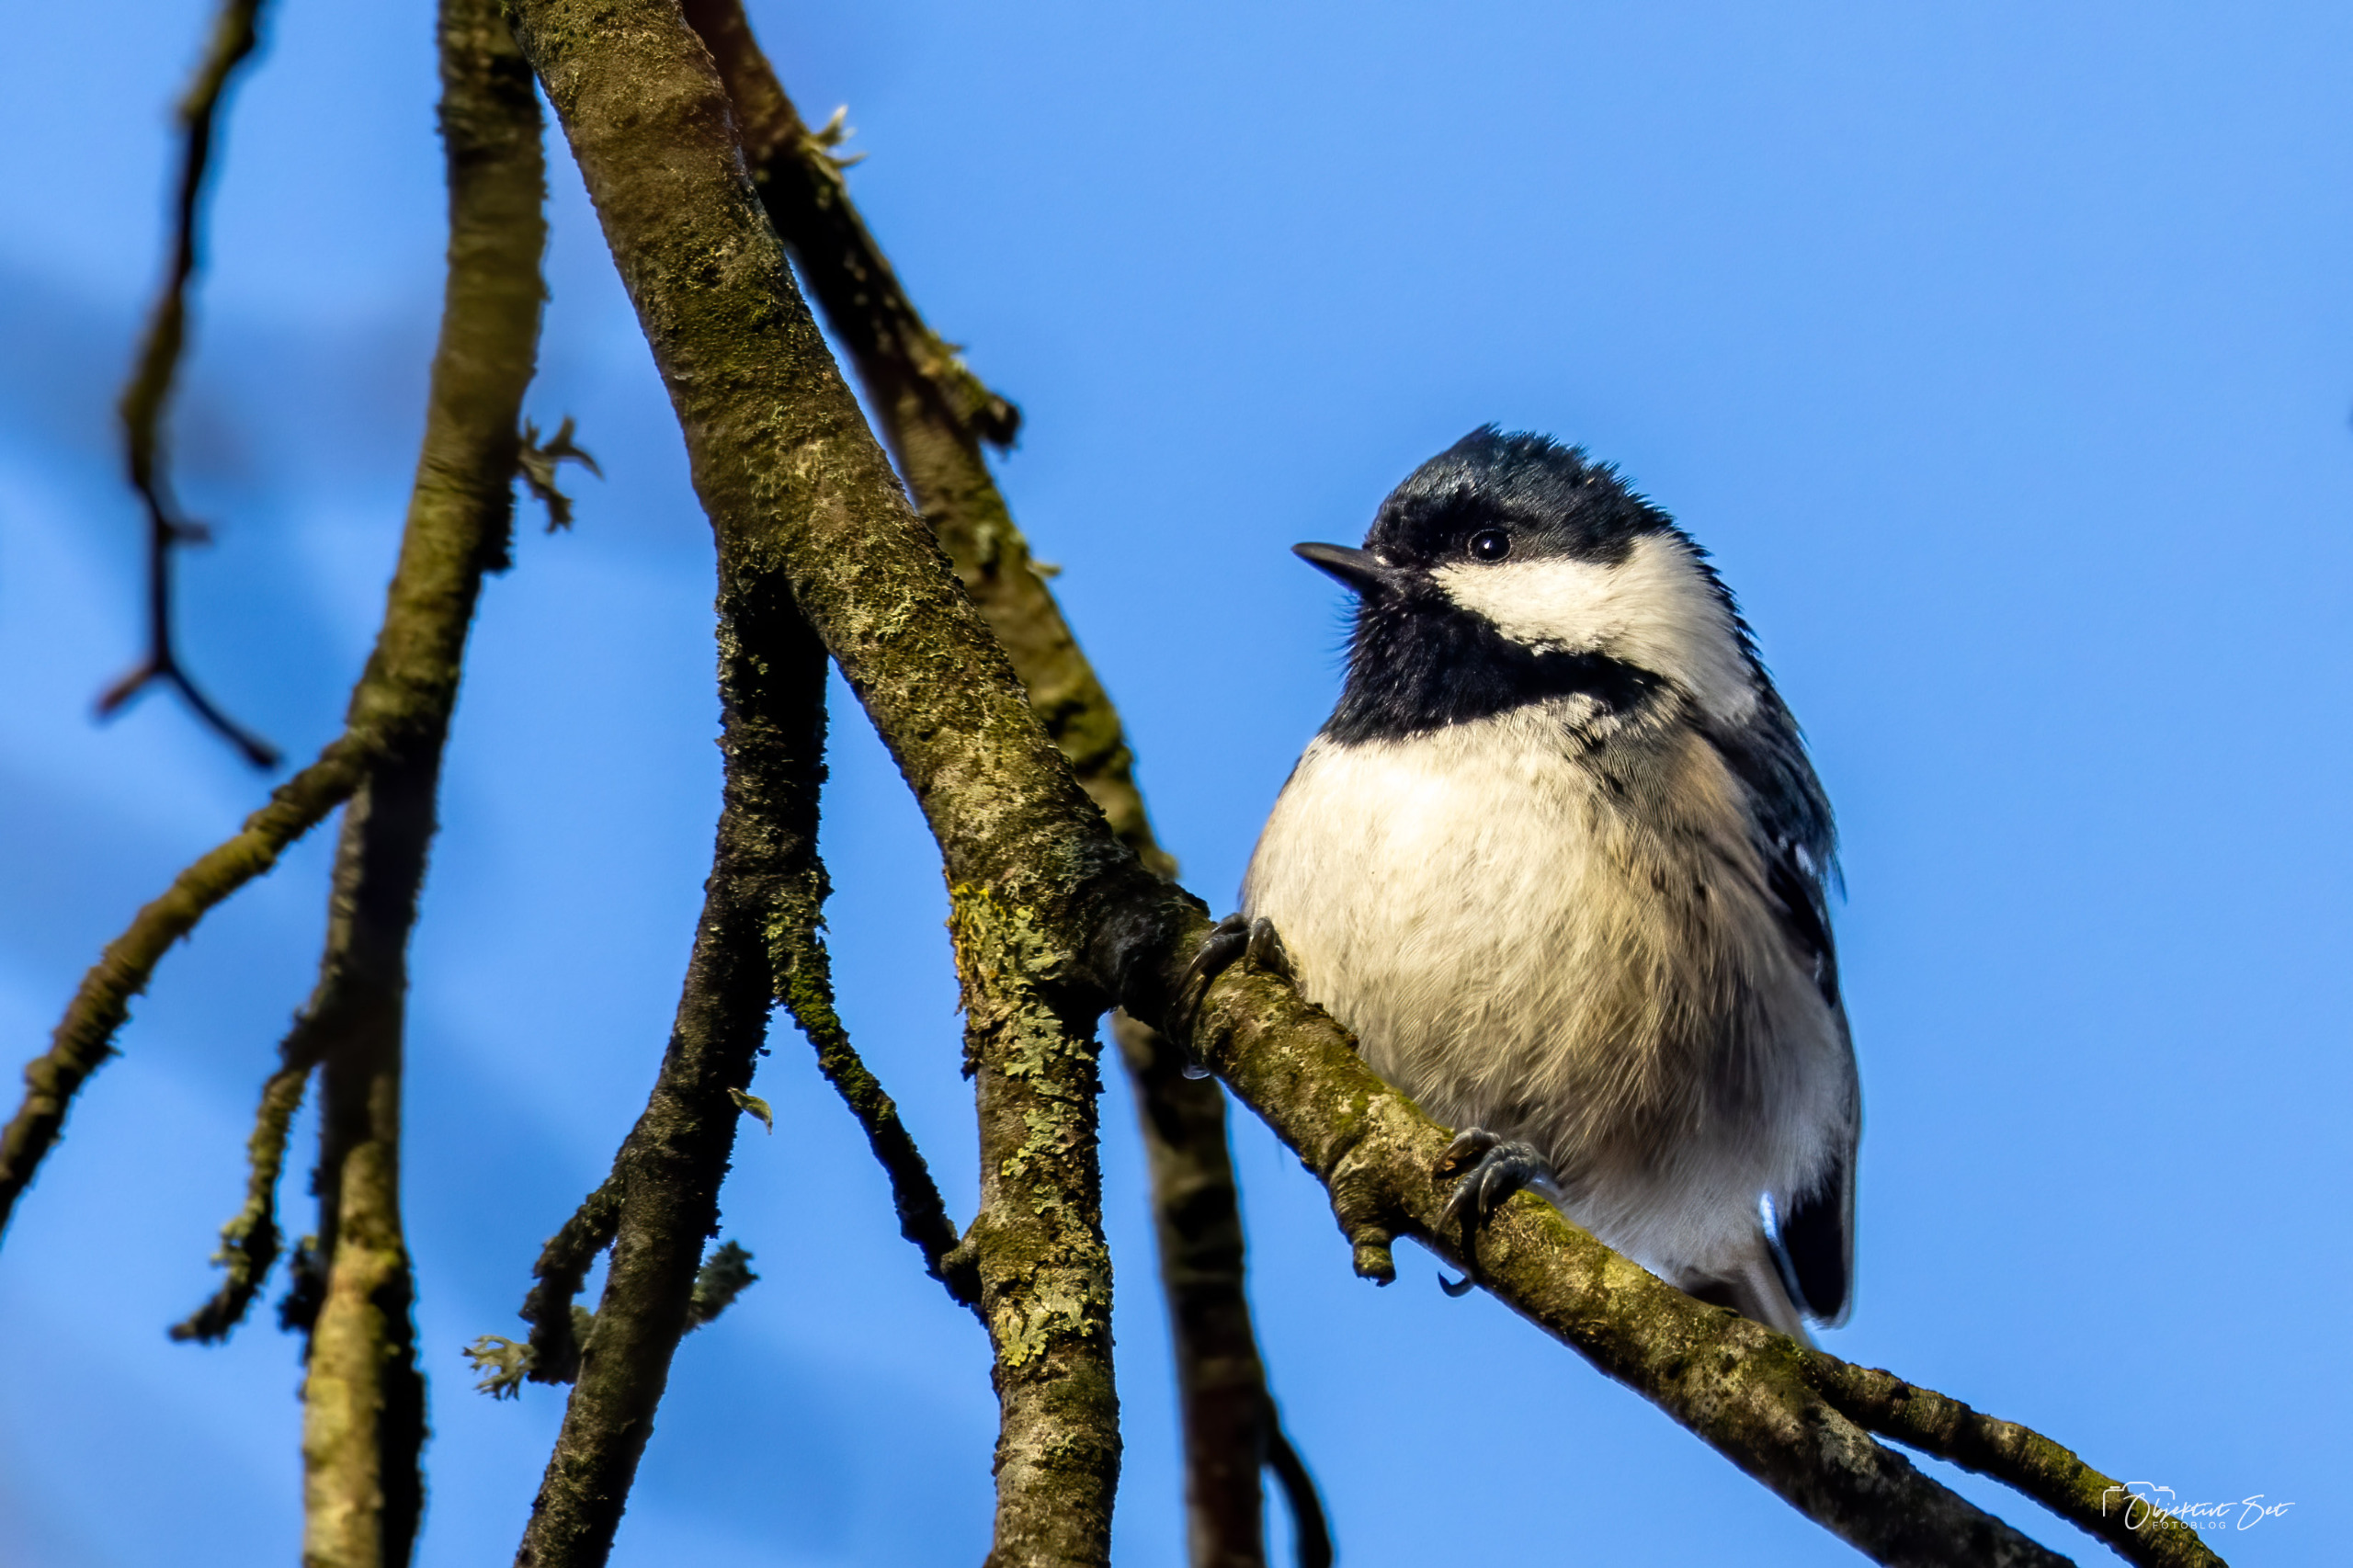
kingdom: Animalia
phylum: Chordata
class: Aves
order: Passeriformes
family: Paridae
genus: Periparus
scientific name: Periparus ater
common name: Sortmejse
